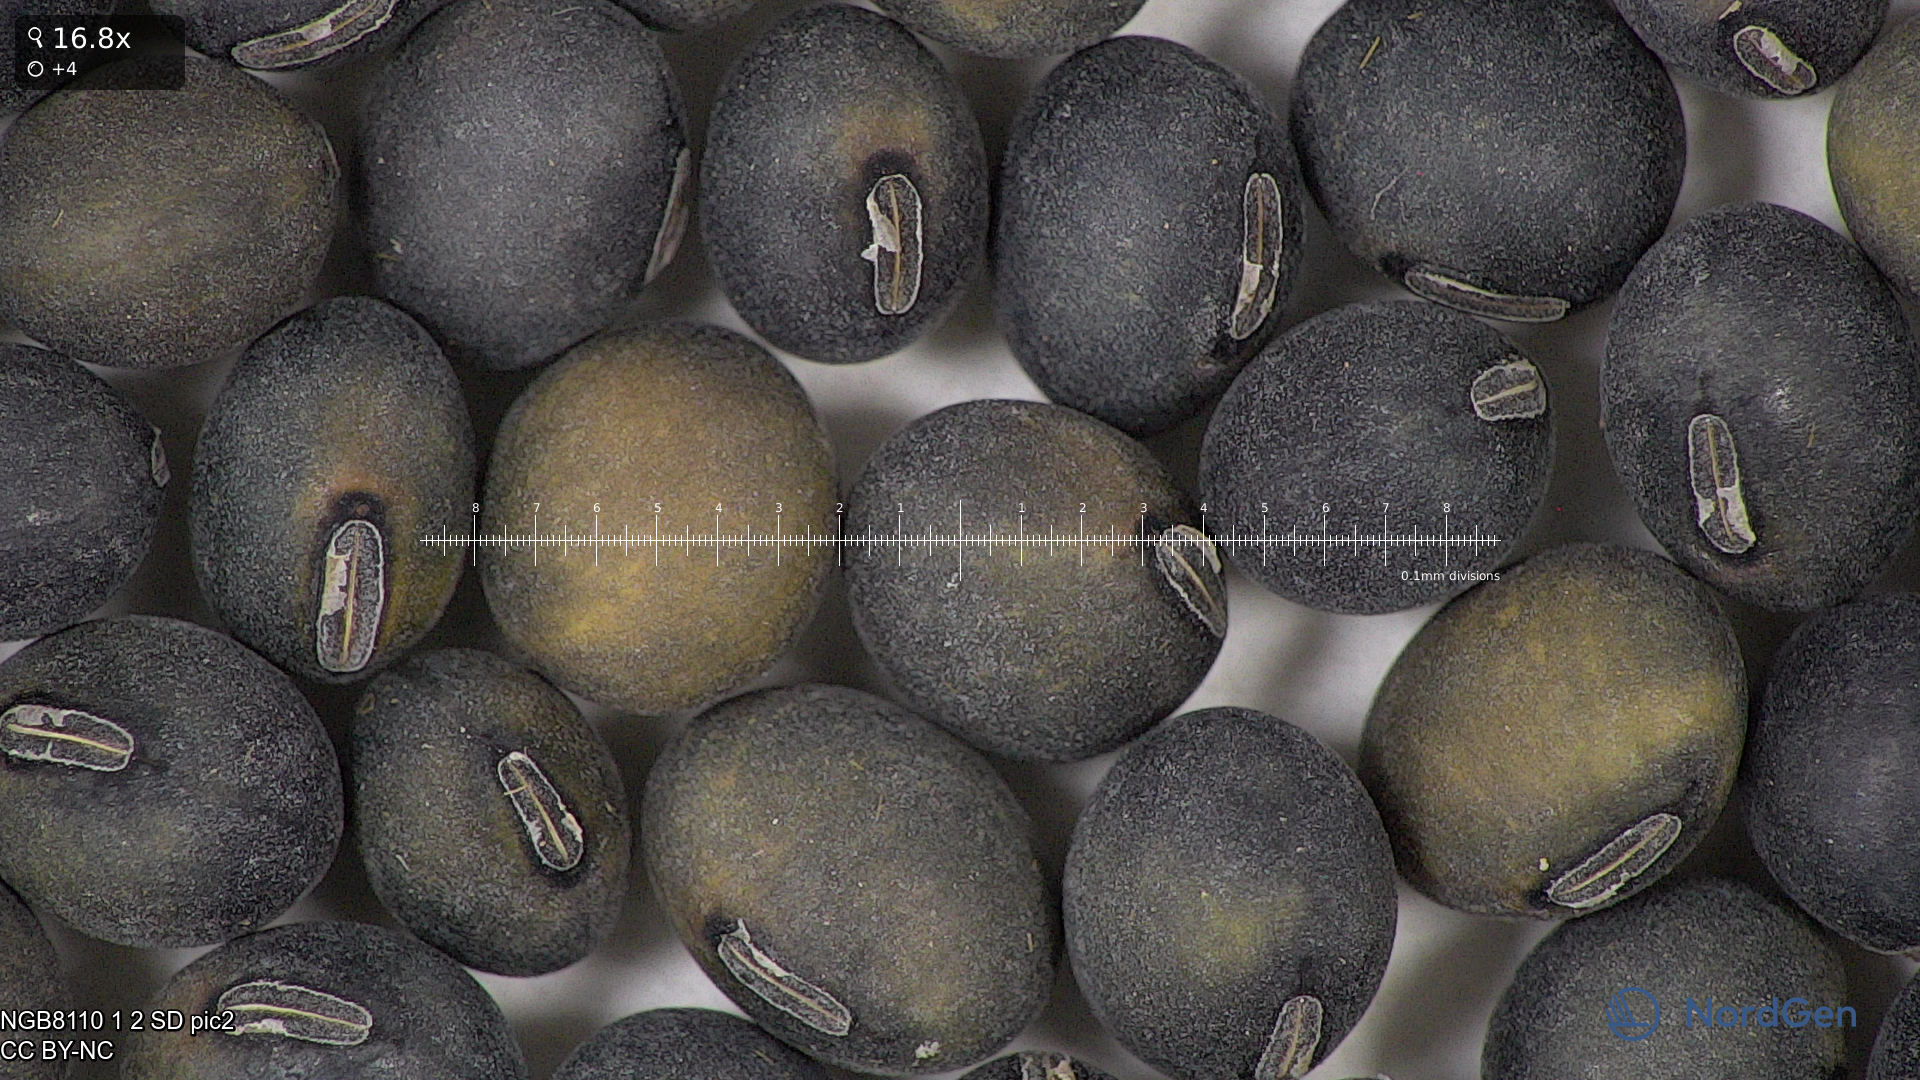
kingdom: Plantae
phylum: Tracheophyta
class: Magnoliopsida
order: Fabales
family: Fabaceae
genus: Glycine
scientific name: Glycine max
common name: Soya-bean
